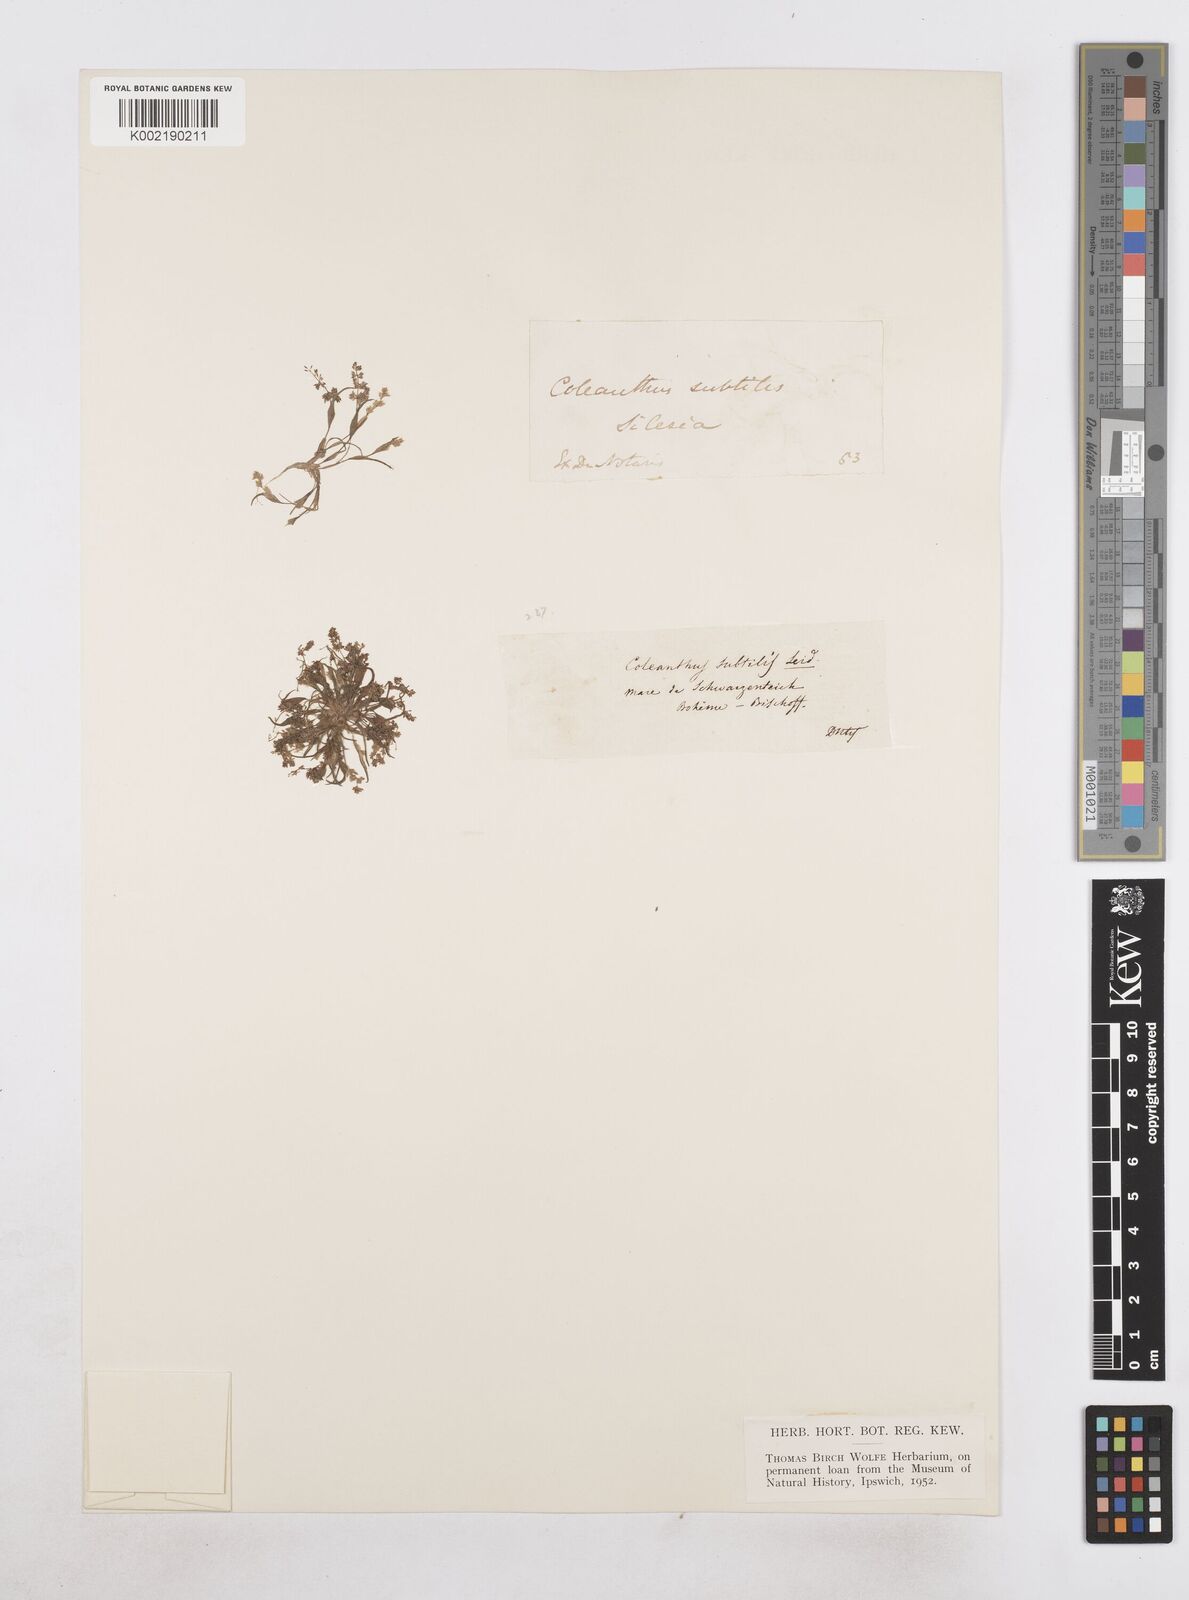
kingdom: Plantae
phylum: Tracheophyta
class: Liliopsida
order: Poales
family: Poaceae
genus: Coleanthus
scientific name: Coleanthus subtilis
